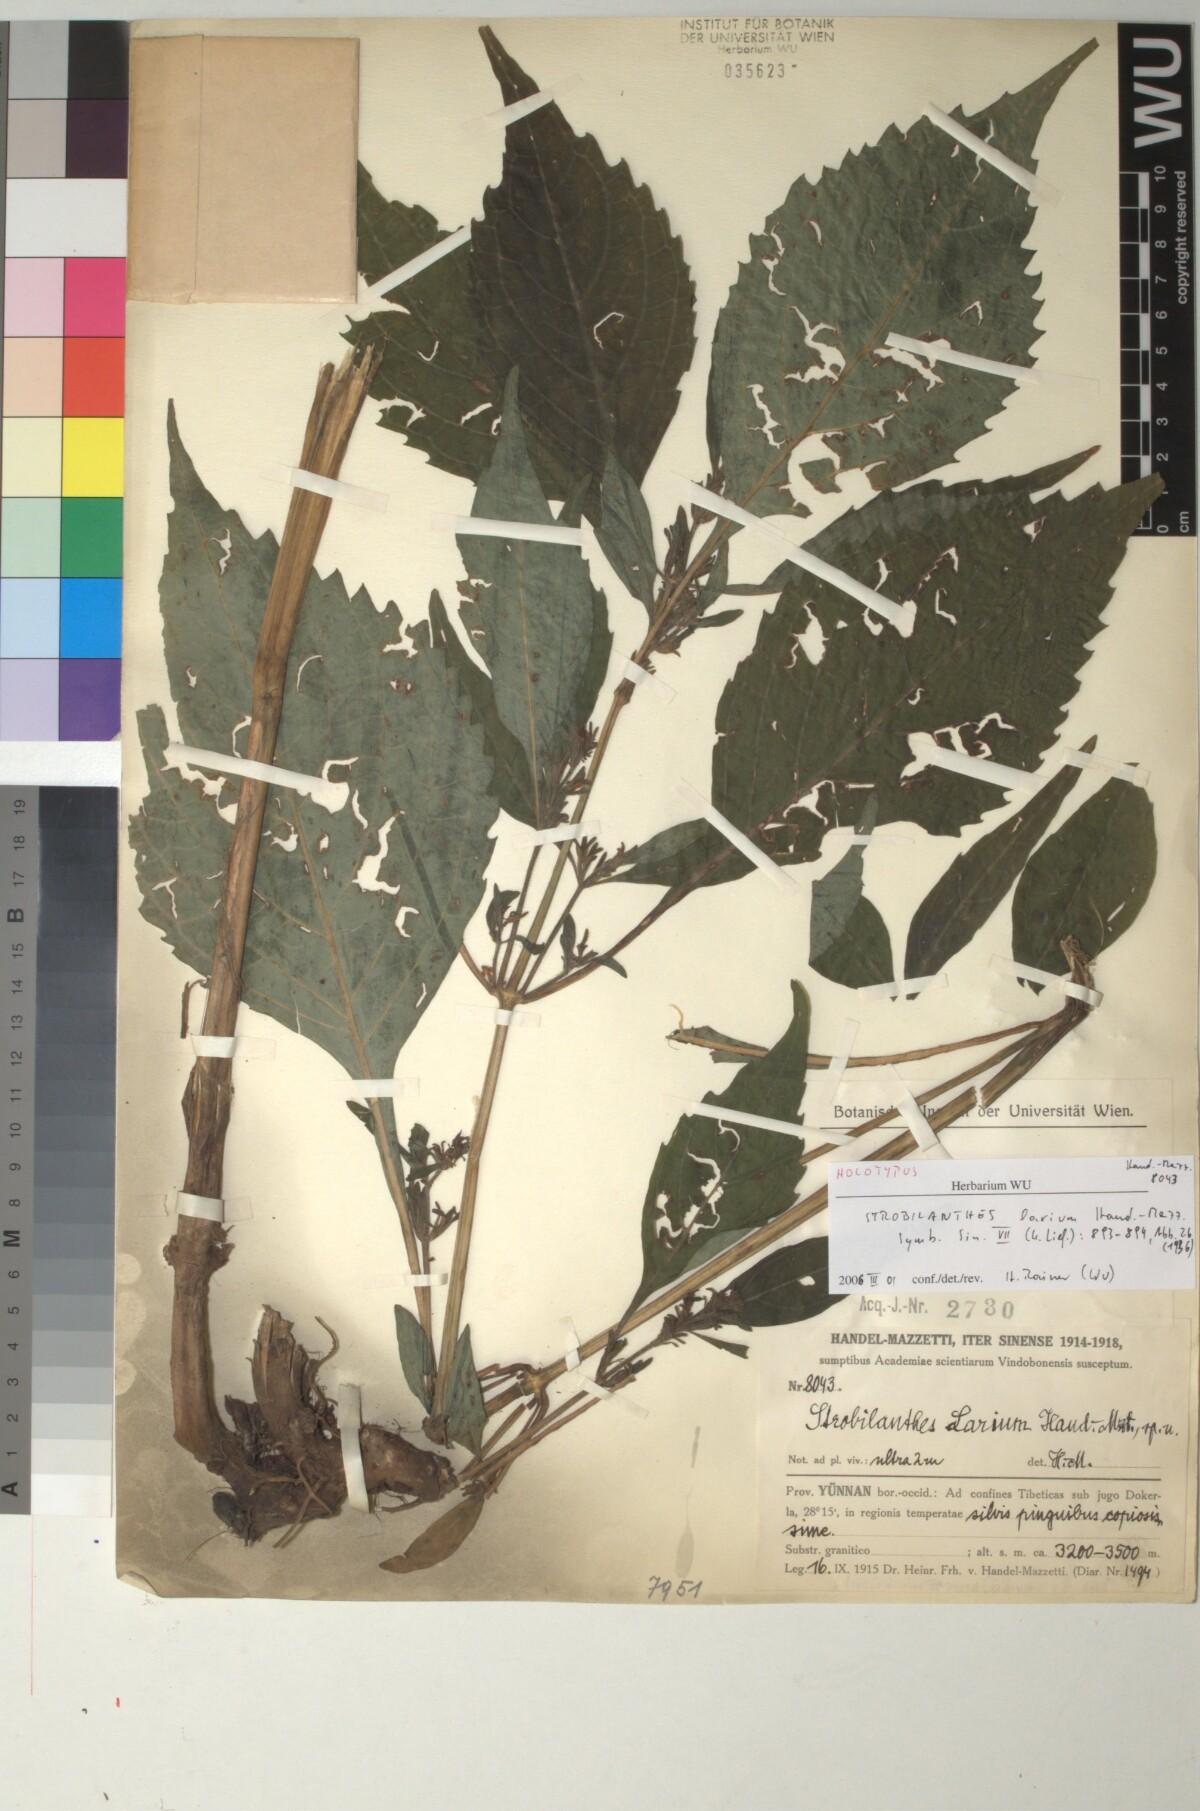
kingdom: Plantae
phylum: Tracheophyta
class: Magnoliopsida
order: Lamiales
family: Acanthaceae
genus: Strobilanthes
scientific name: Strobilanthes oresbia
